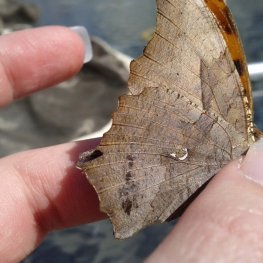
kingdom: Animalia
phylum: Arthropoda
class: Insecta
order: Lepidoptera
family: Nymphalidae
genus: Polygonia
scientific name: Polygonia interrogationis
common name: Question Mark
